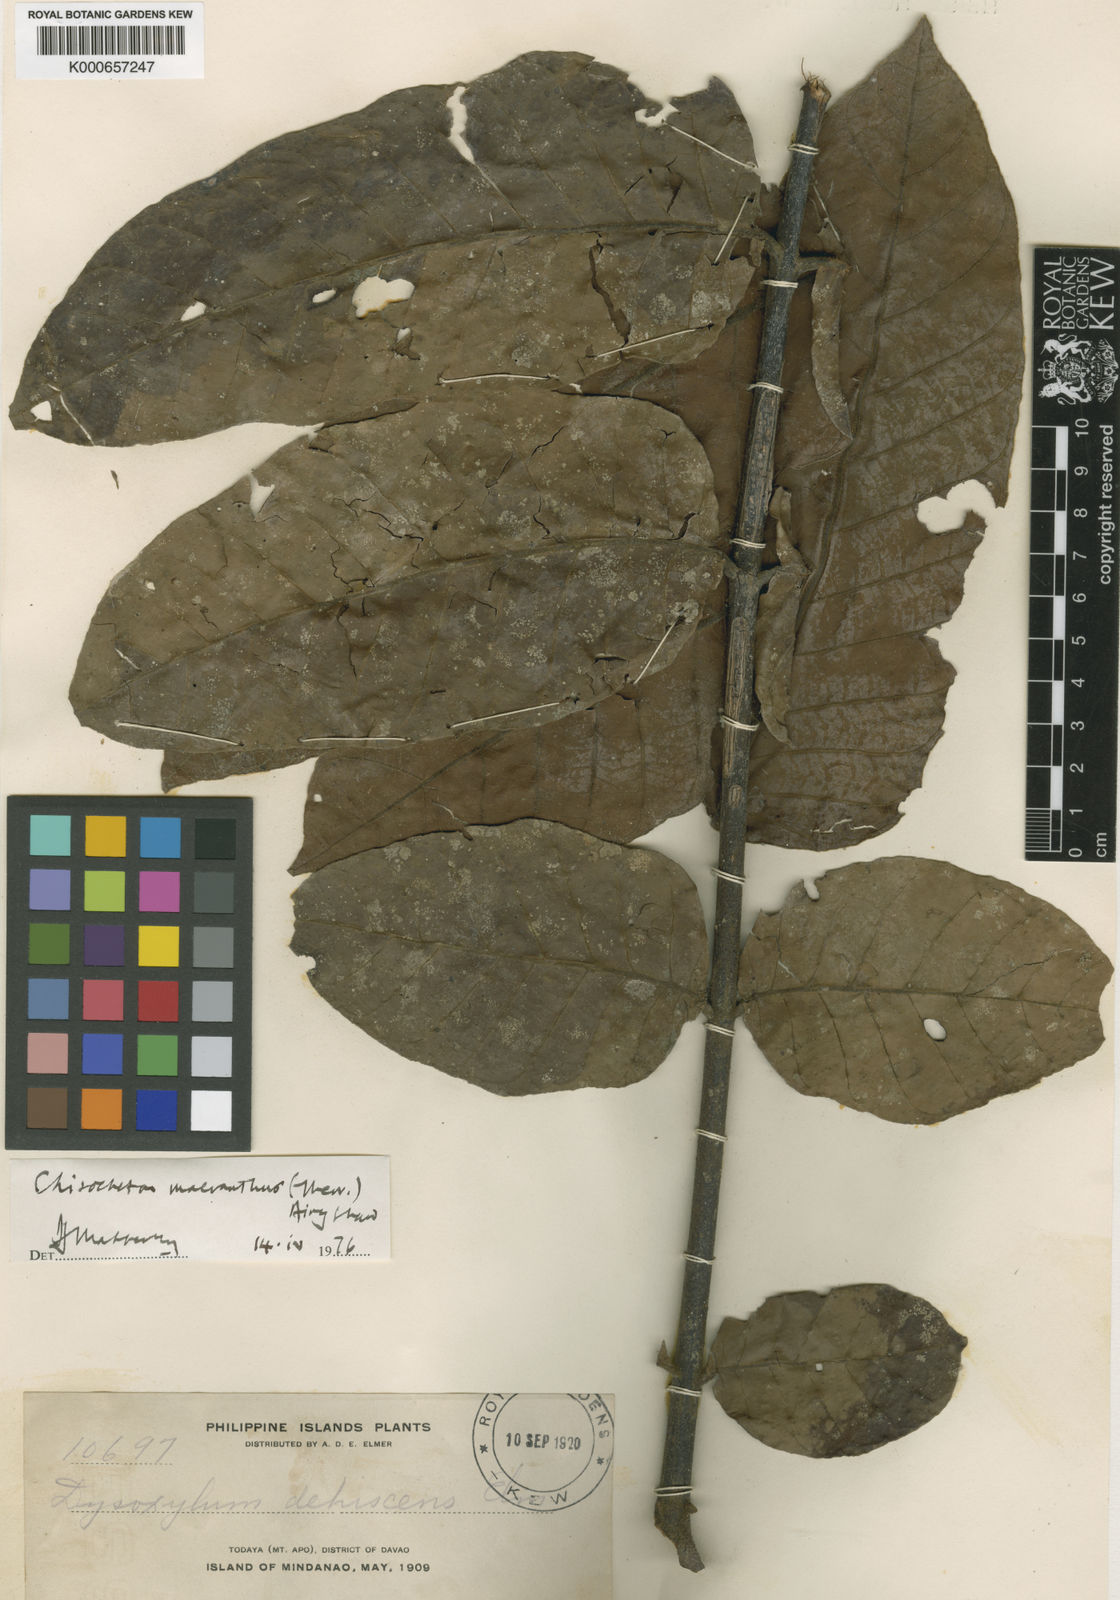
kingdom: Plantae
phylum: Tracheophyta
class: Magnoliopsida
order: Sapindales
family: Meliaceae
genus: Chisocheton
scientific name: Chisocheton macranthus
